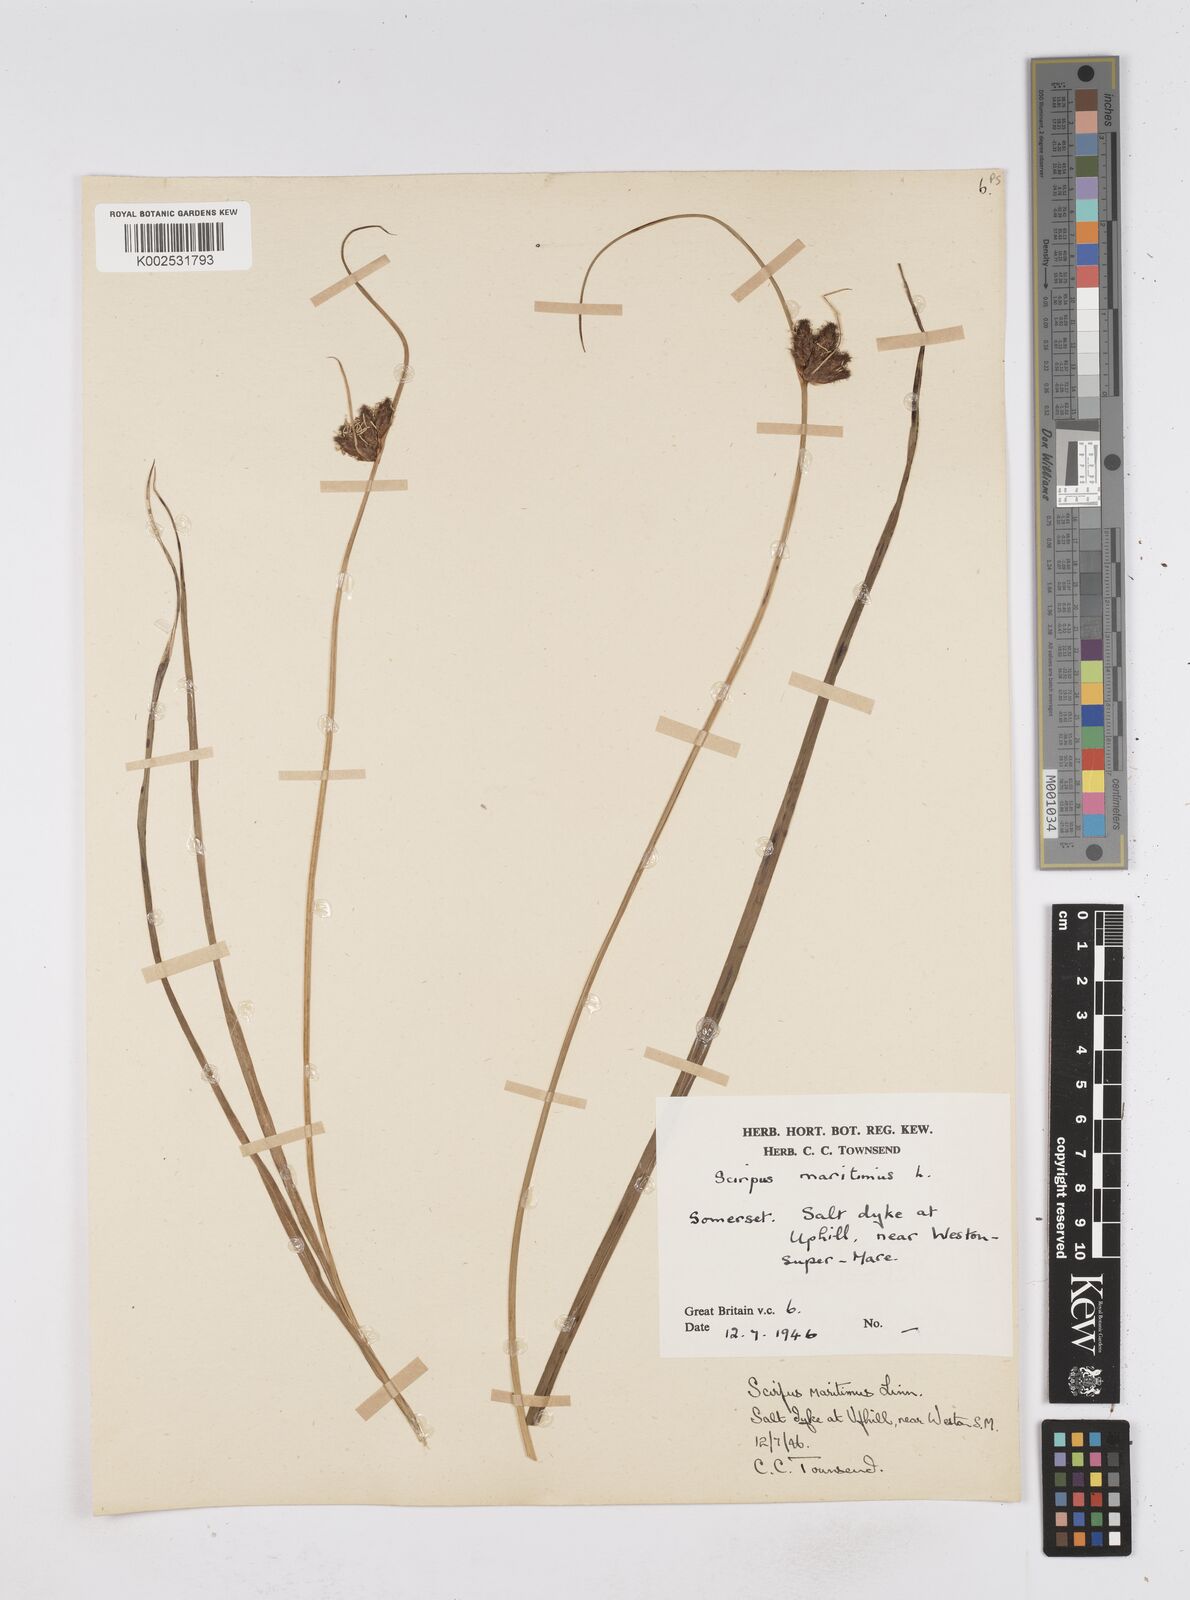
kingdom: Plantae
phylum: Tracheophyta
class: Liliopsida
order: Poales
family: Cyperaceae
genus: Bolboschoenus
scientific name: Bolboschoenus maritimus
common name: Sea club-rush
